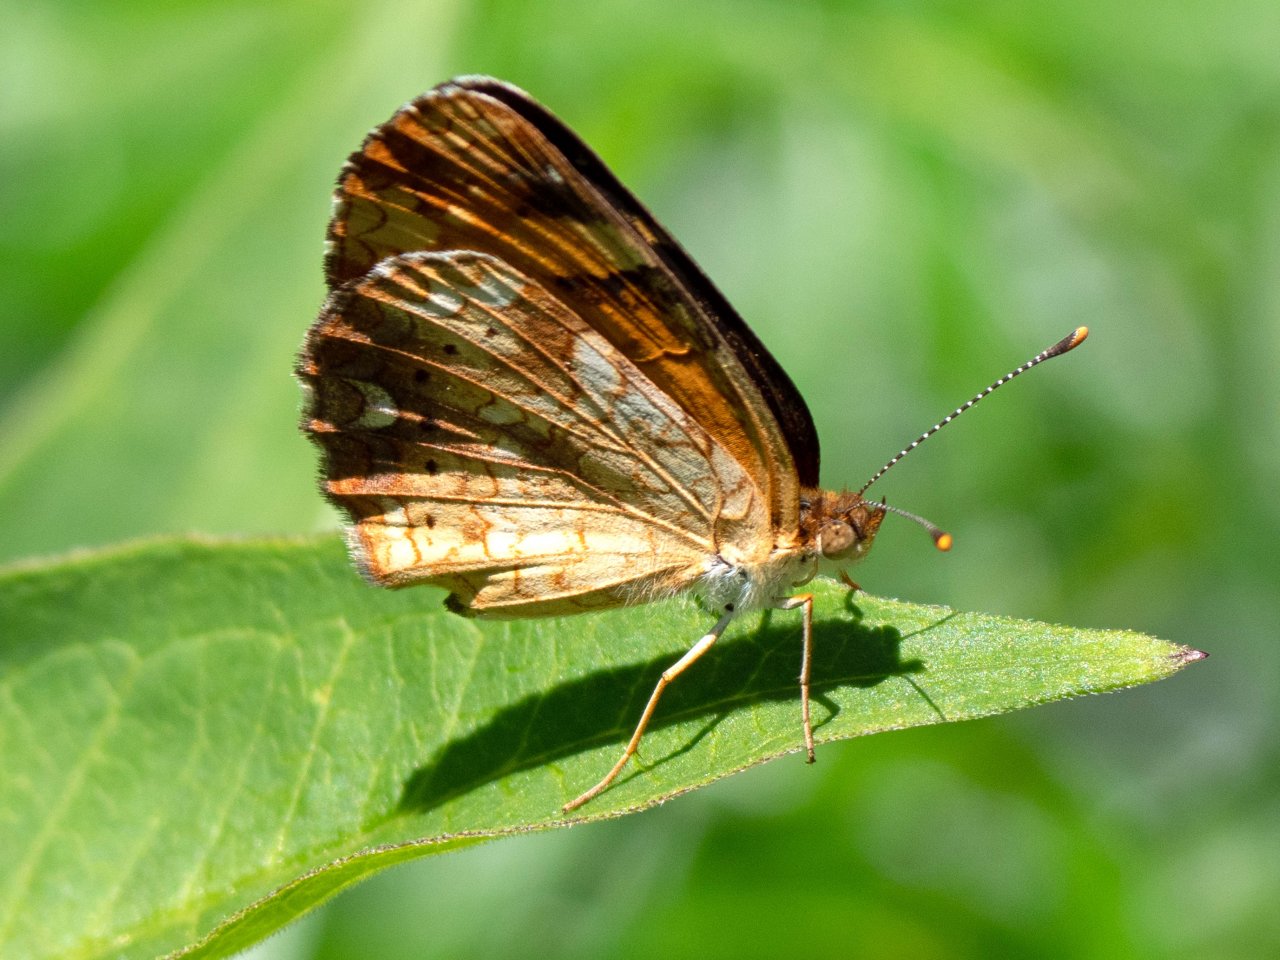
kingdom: Animalia
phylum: Arthropoda
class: Insecta
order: Lepidoptera
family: Nymphalidae
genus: Phyciodes
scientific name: Phyciodes
